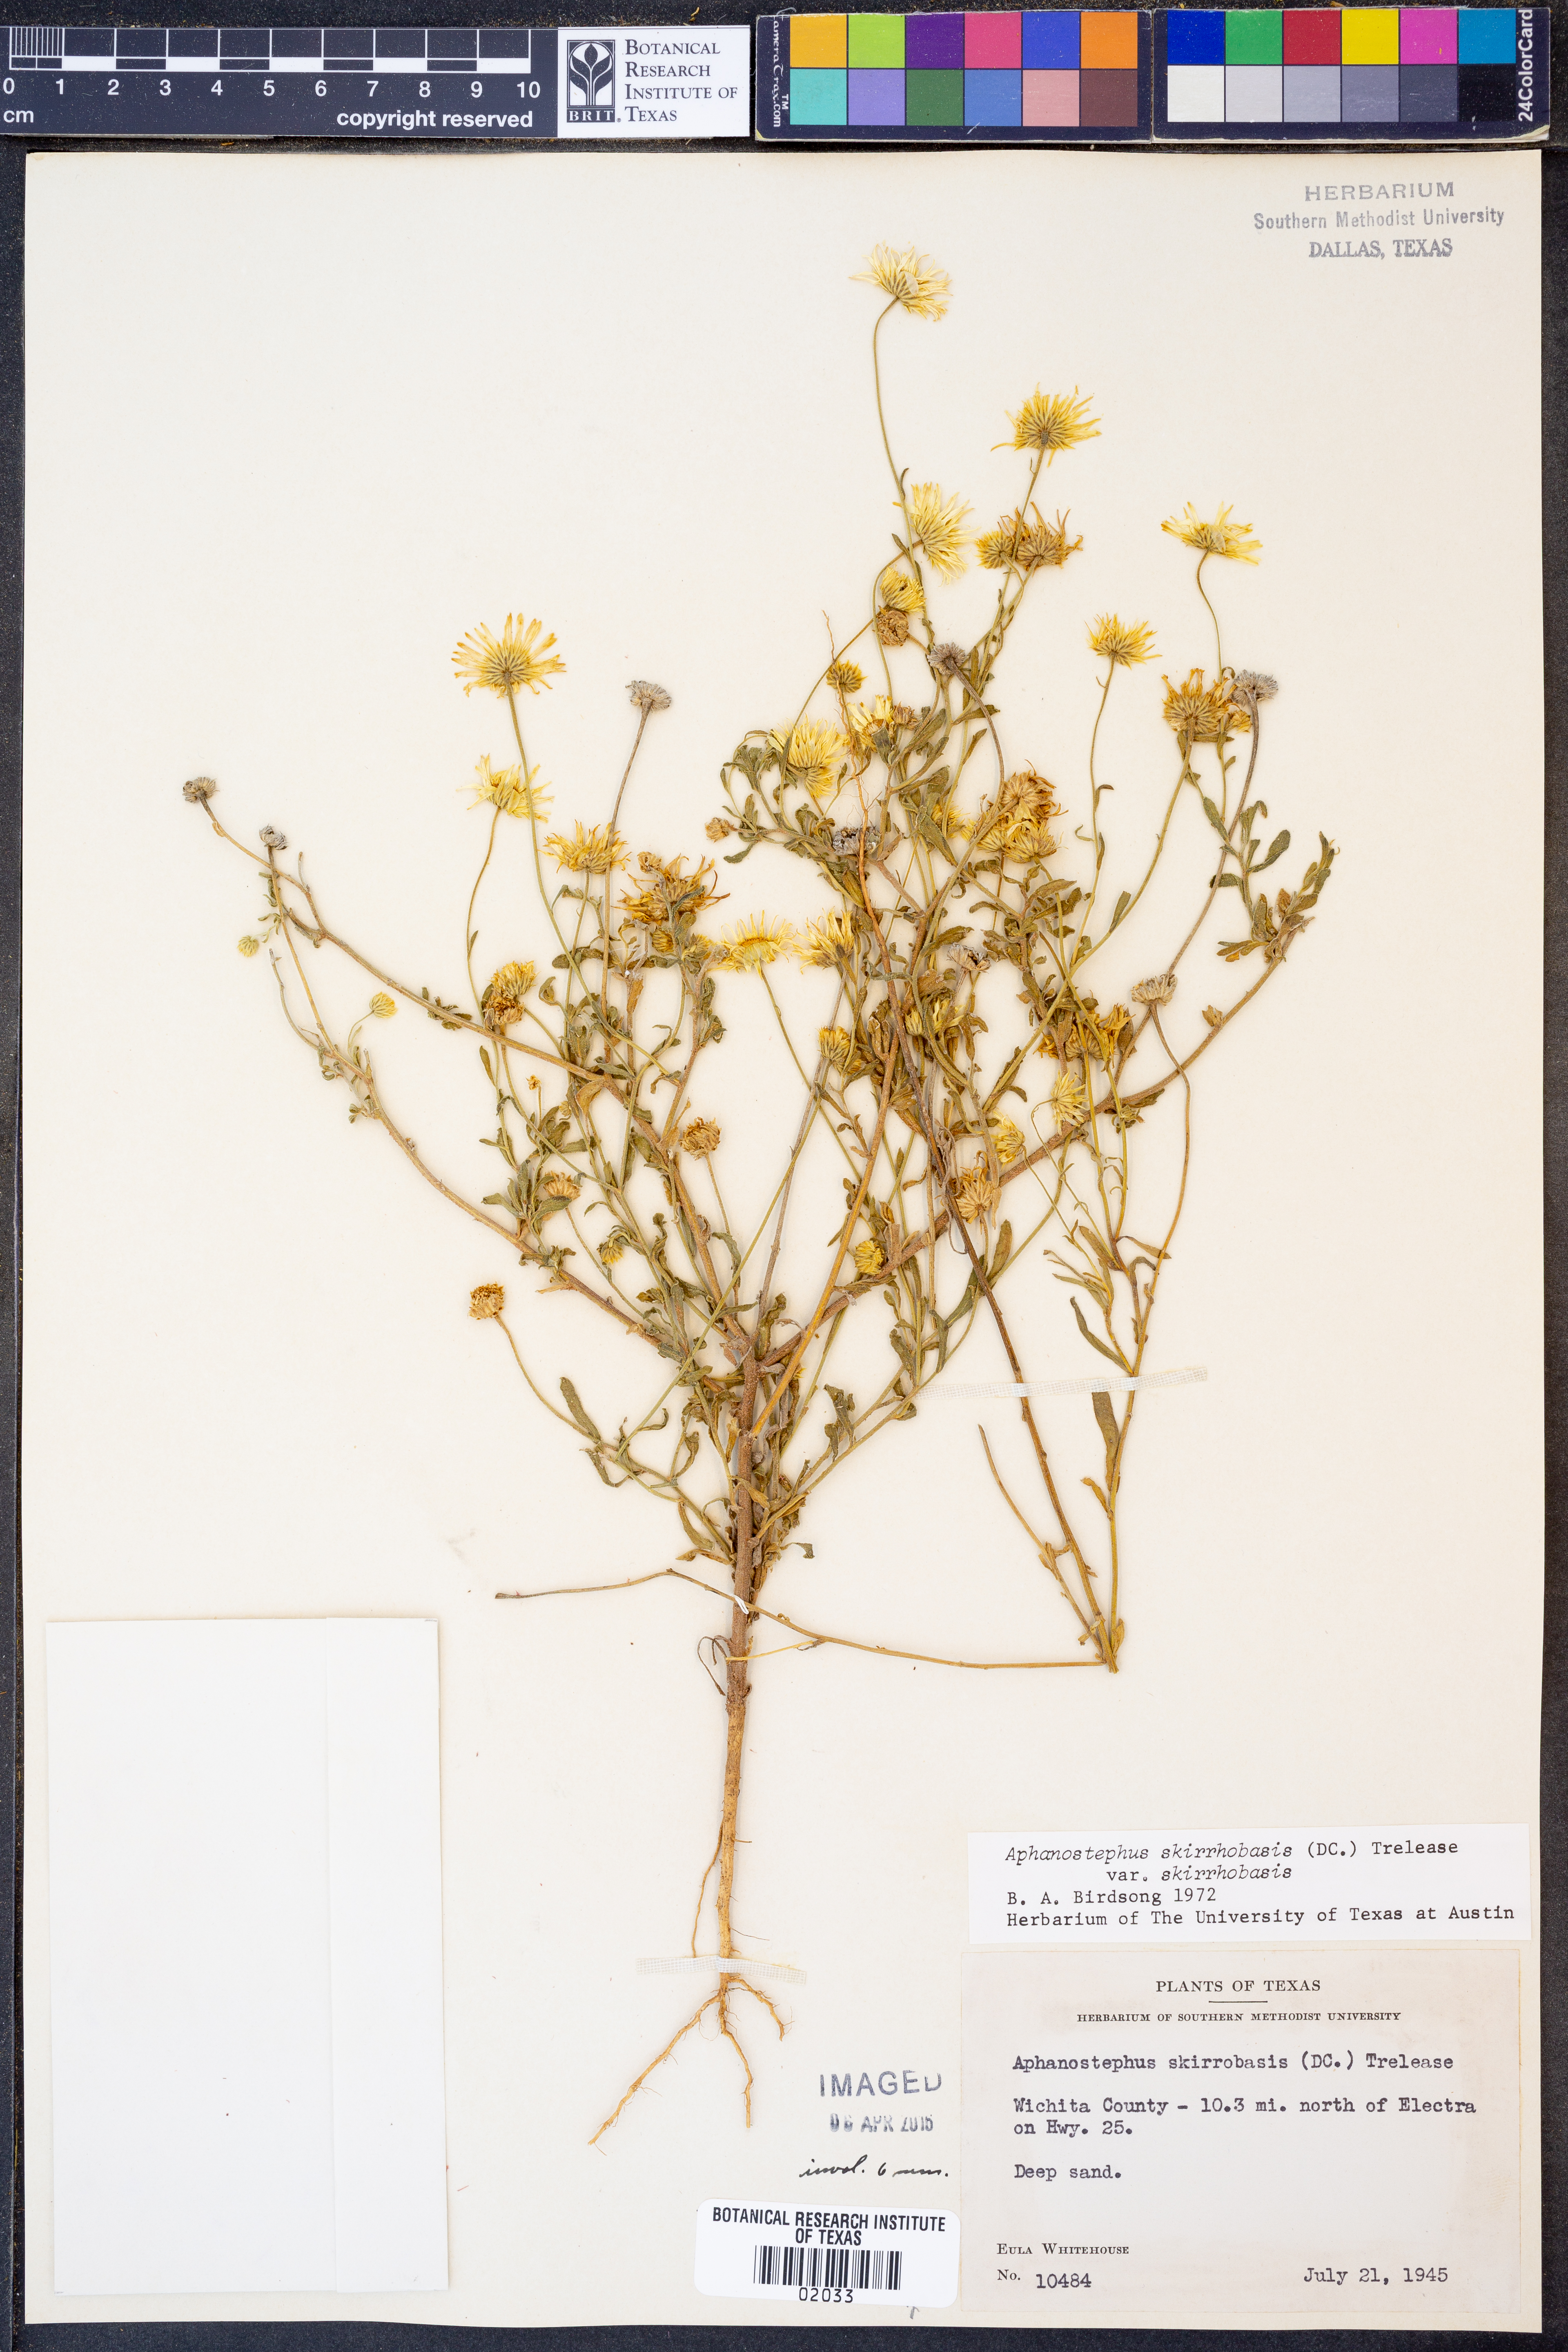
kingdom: Plantae
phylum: Tracheophyta
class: Magnoliopsida
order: Asterales
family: Asteraceae
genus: Aphanostephus
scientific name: Aphanostephus skirrhobasis
